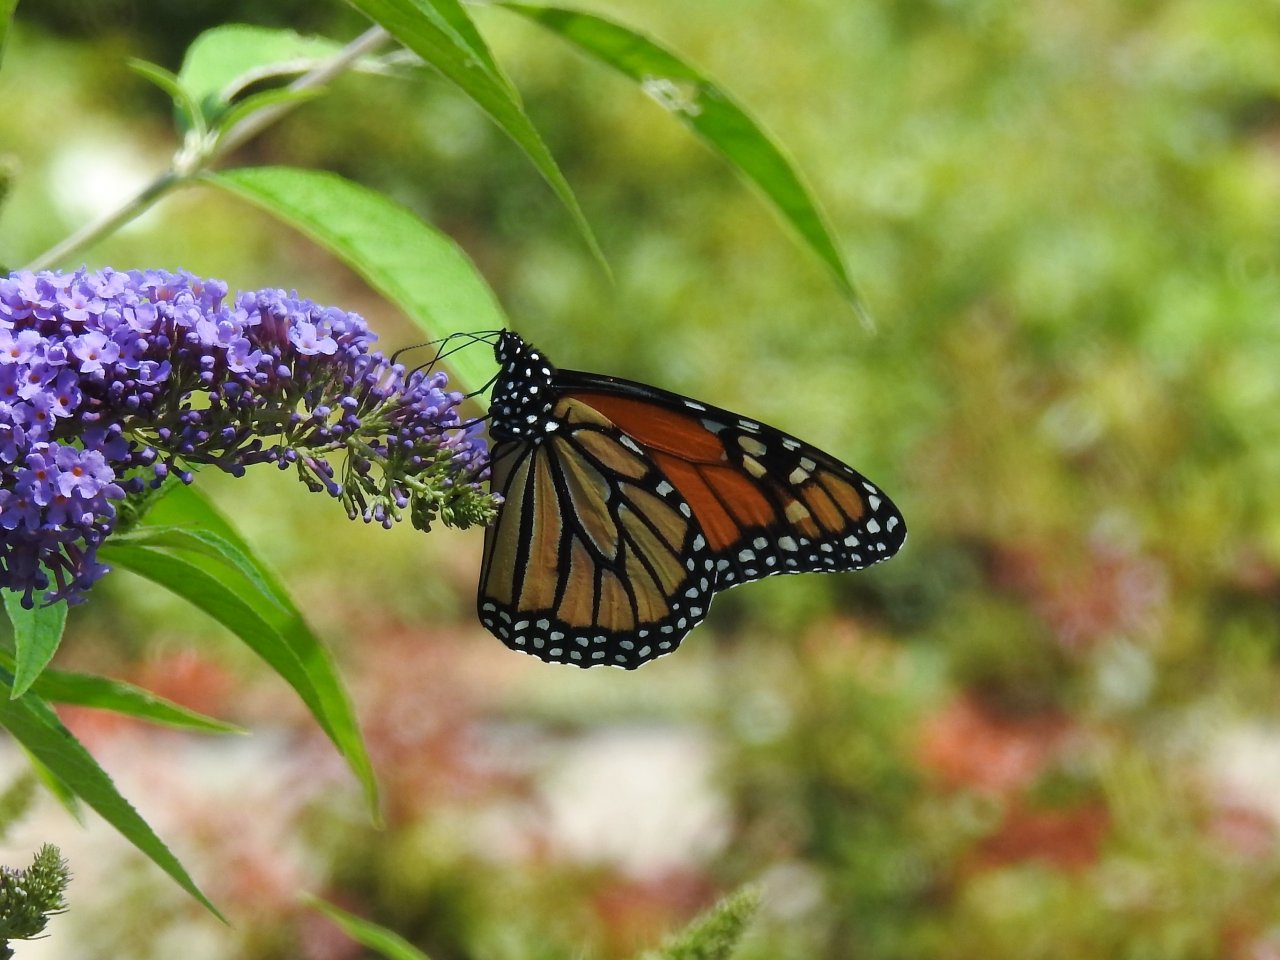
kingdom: Animalia
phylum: Arthropoda
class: Insecta
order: Lepidoptera
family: Nymphalidae
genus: Danaus
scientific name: Danaus plexippus
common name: Monarch
